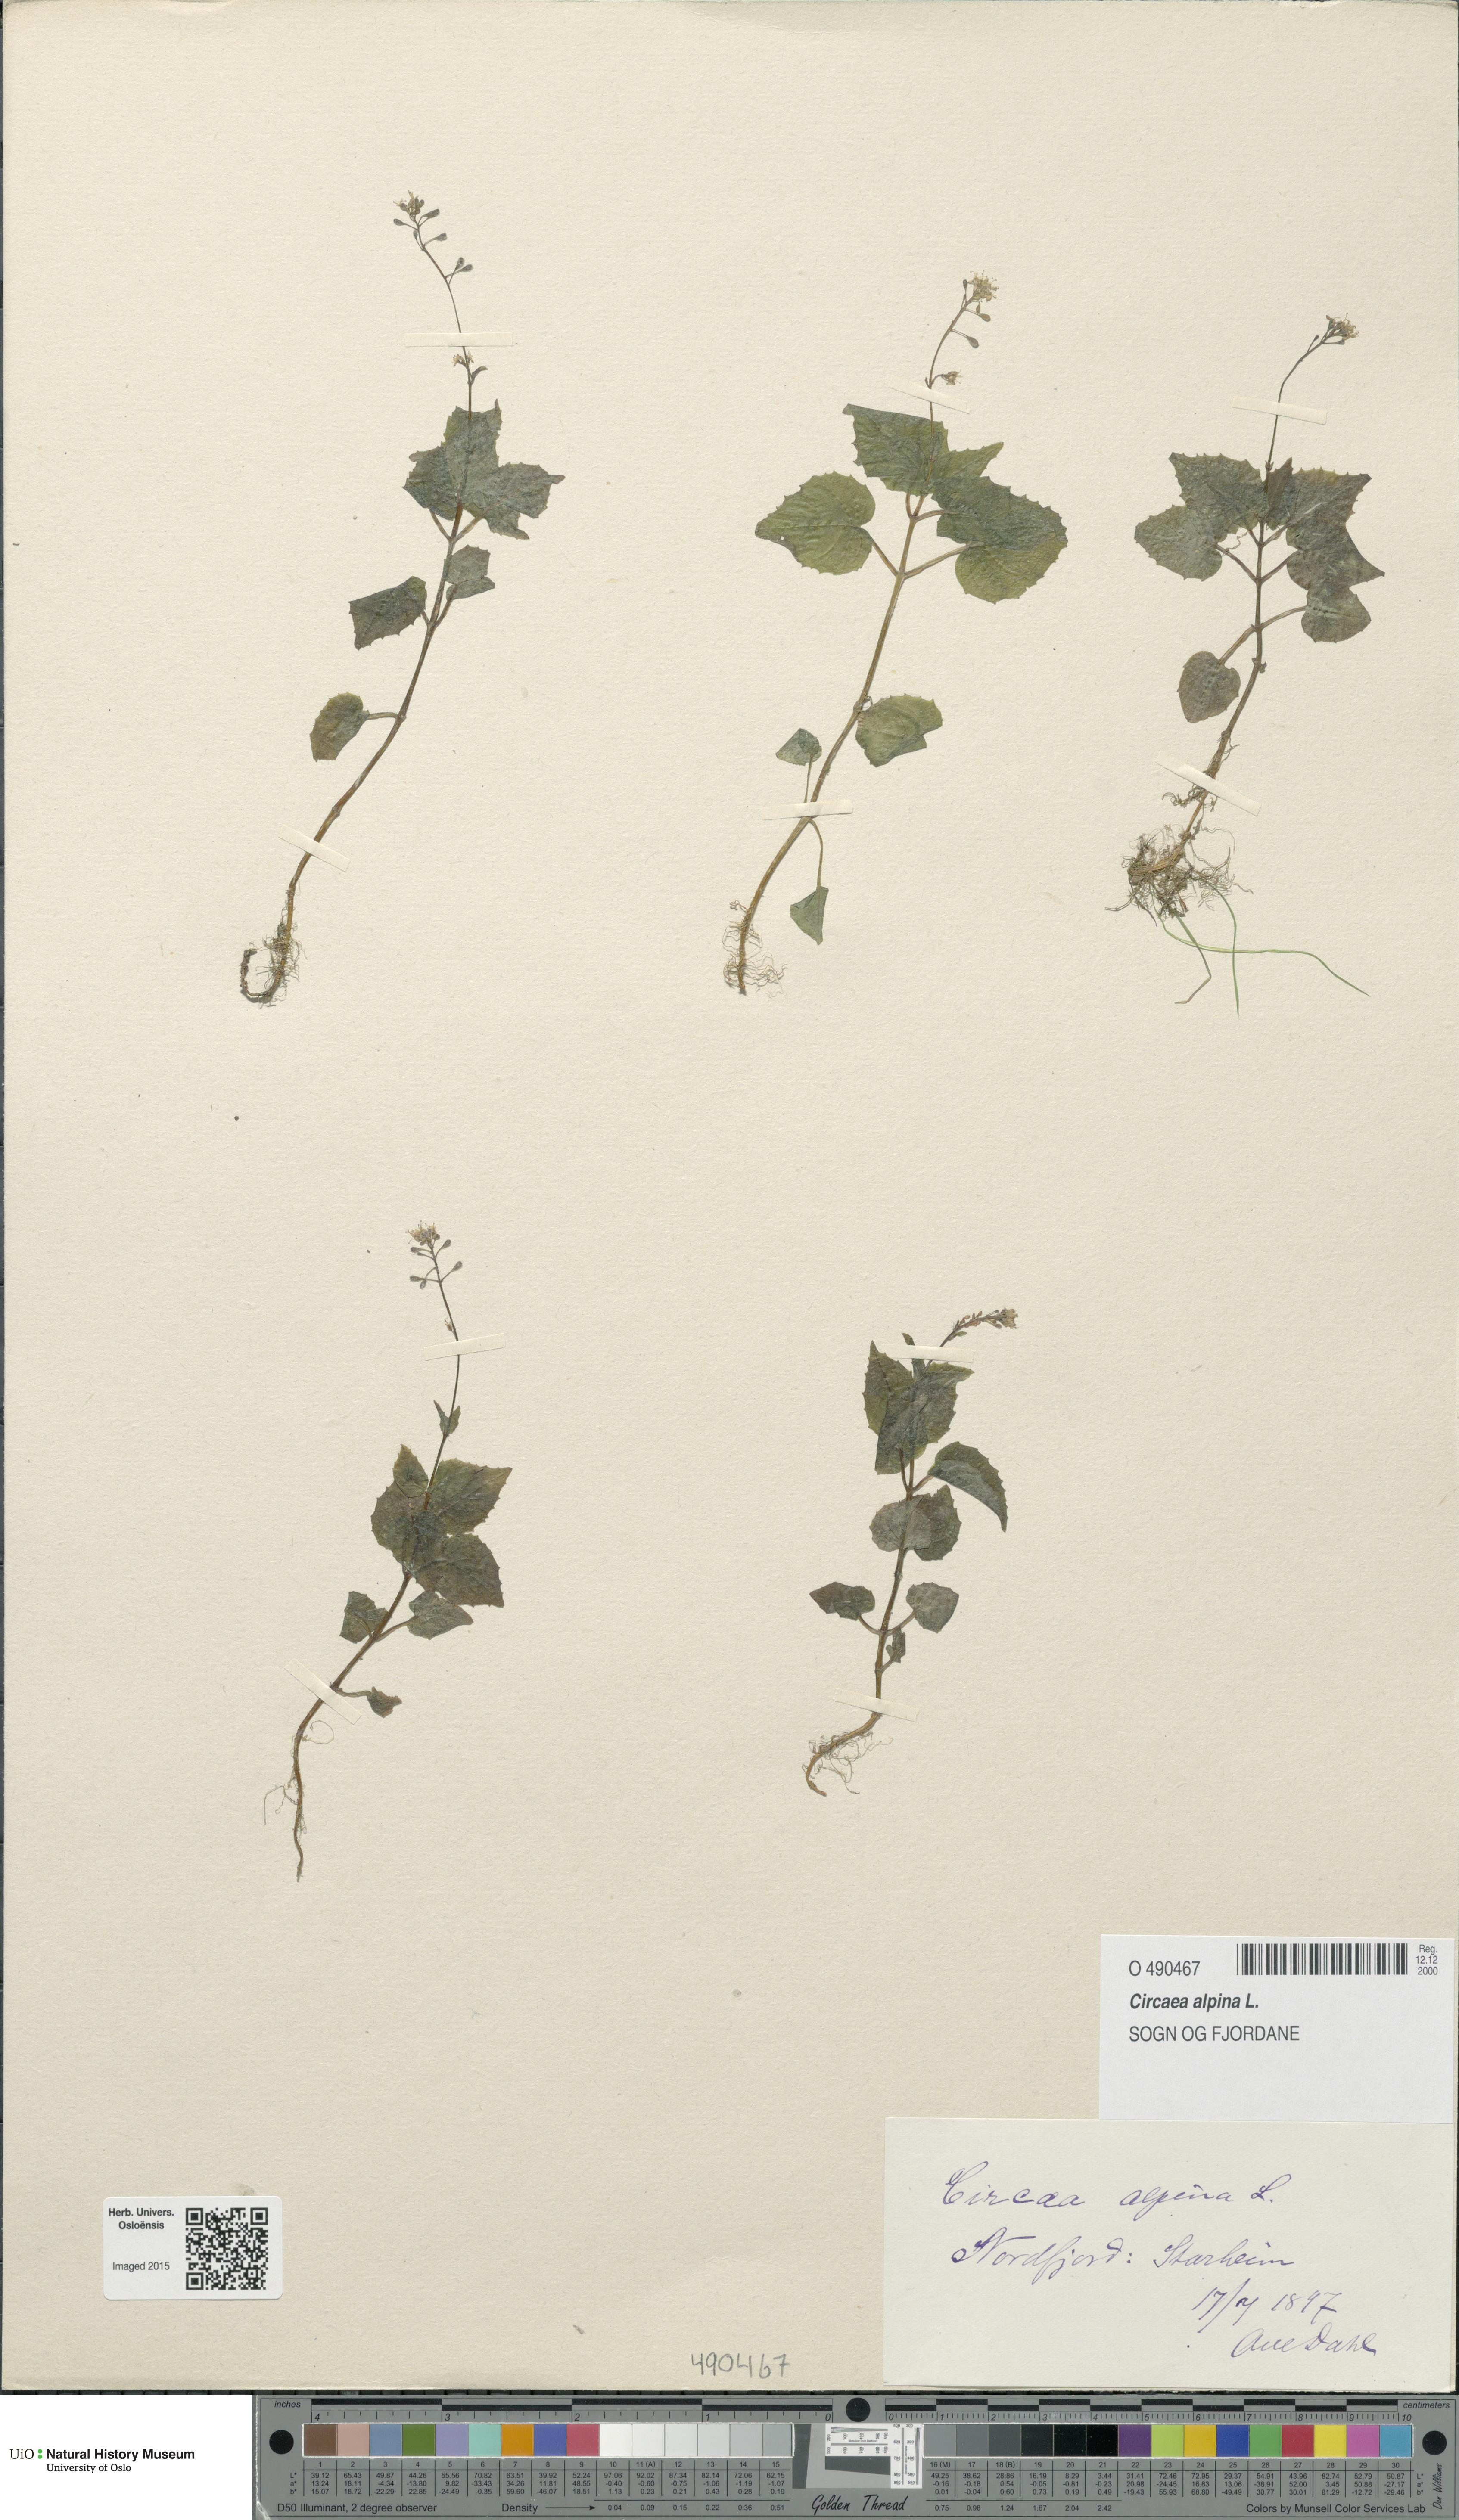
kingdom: Plantae
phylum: Tracheophyta
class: Magnoliopsida
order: Myrtales
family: Onagraceae
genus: Circaea
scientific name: Circaea alpina
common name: Alpine enchanter's-nightshade
